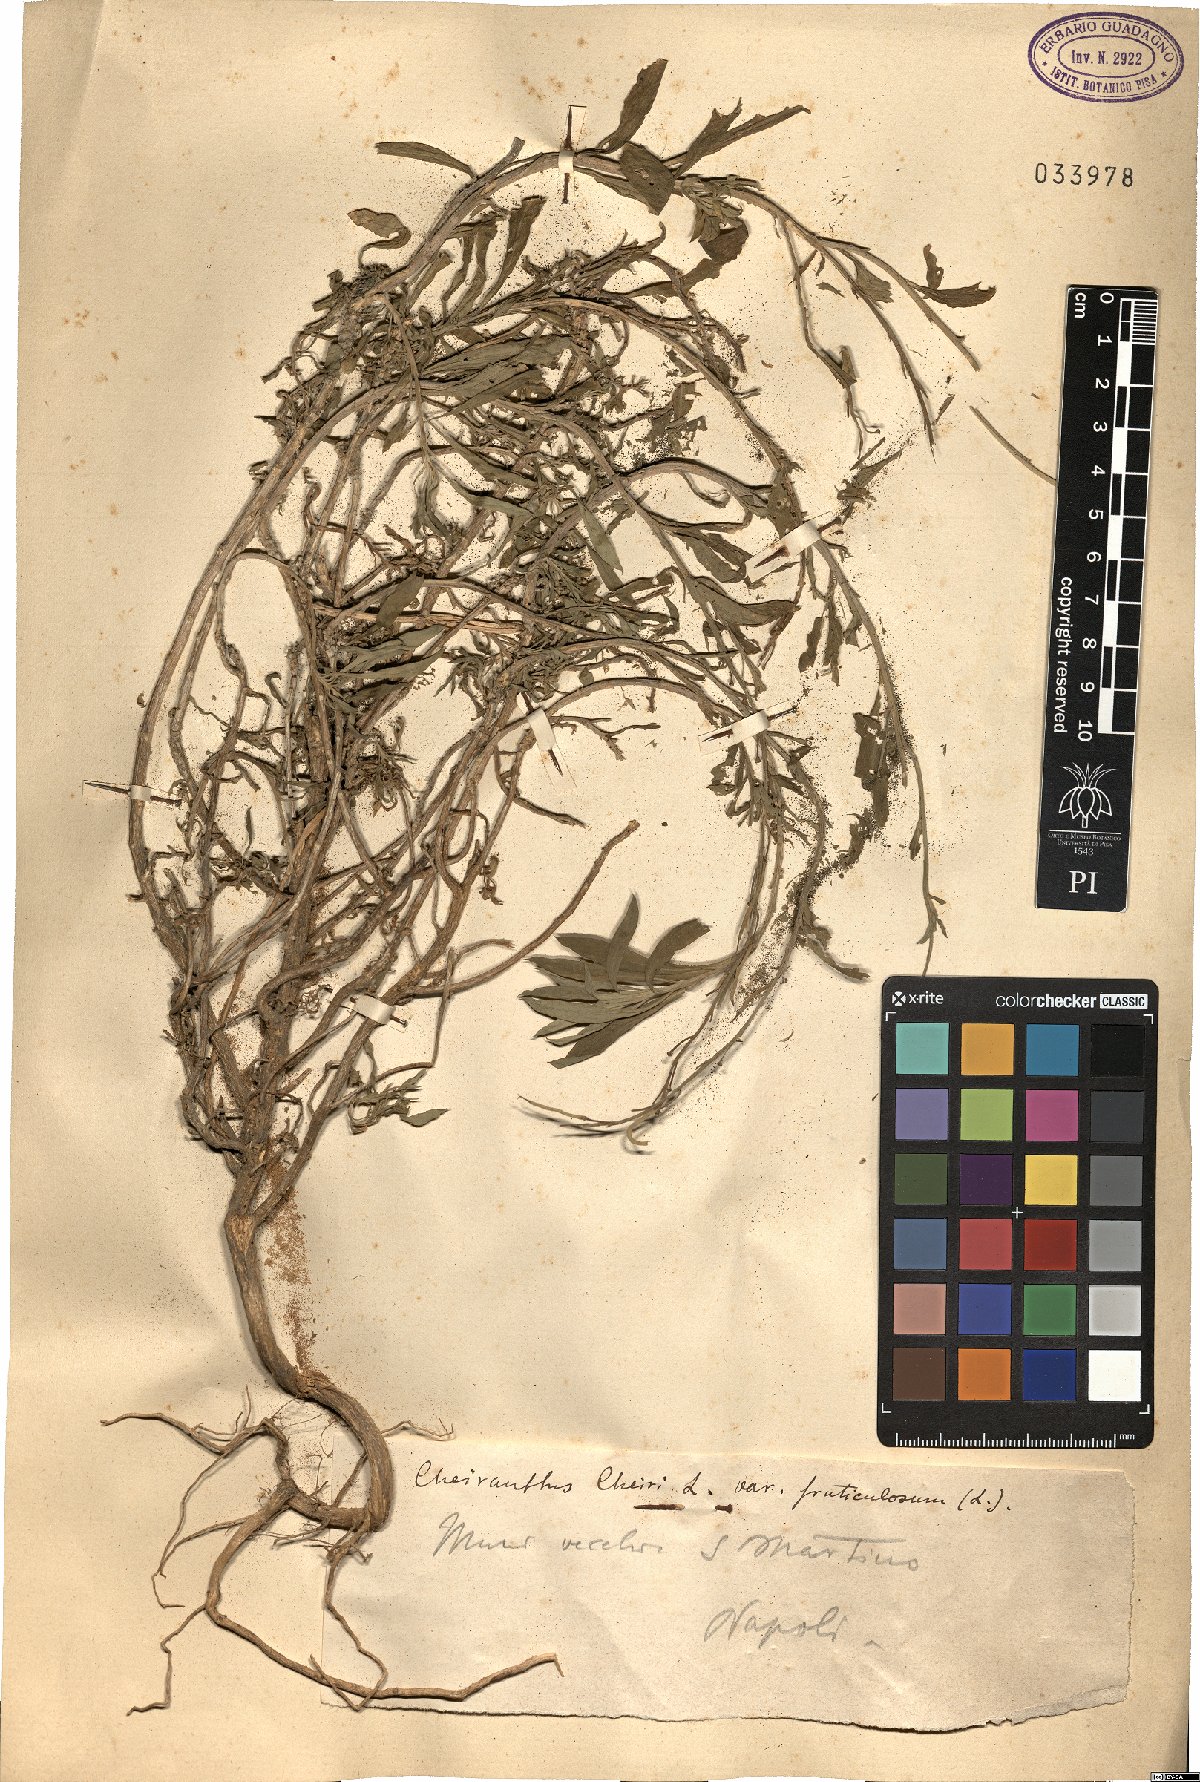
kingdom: Plantae
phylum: Tracheophyta
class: Magnoliopsida
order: Brassicales
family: Brassicaceae
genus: Erysimum
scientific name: Erysimum cheiri
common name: Wallflower
